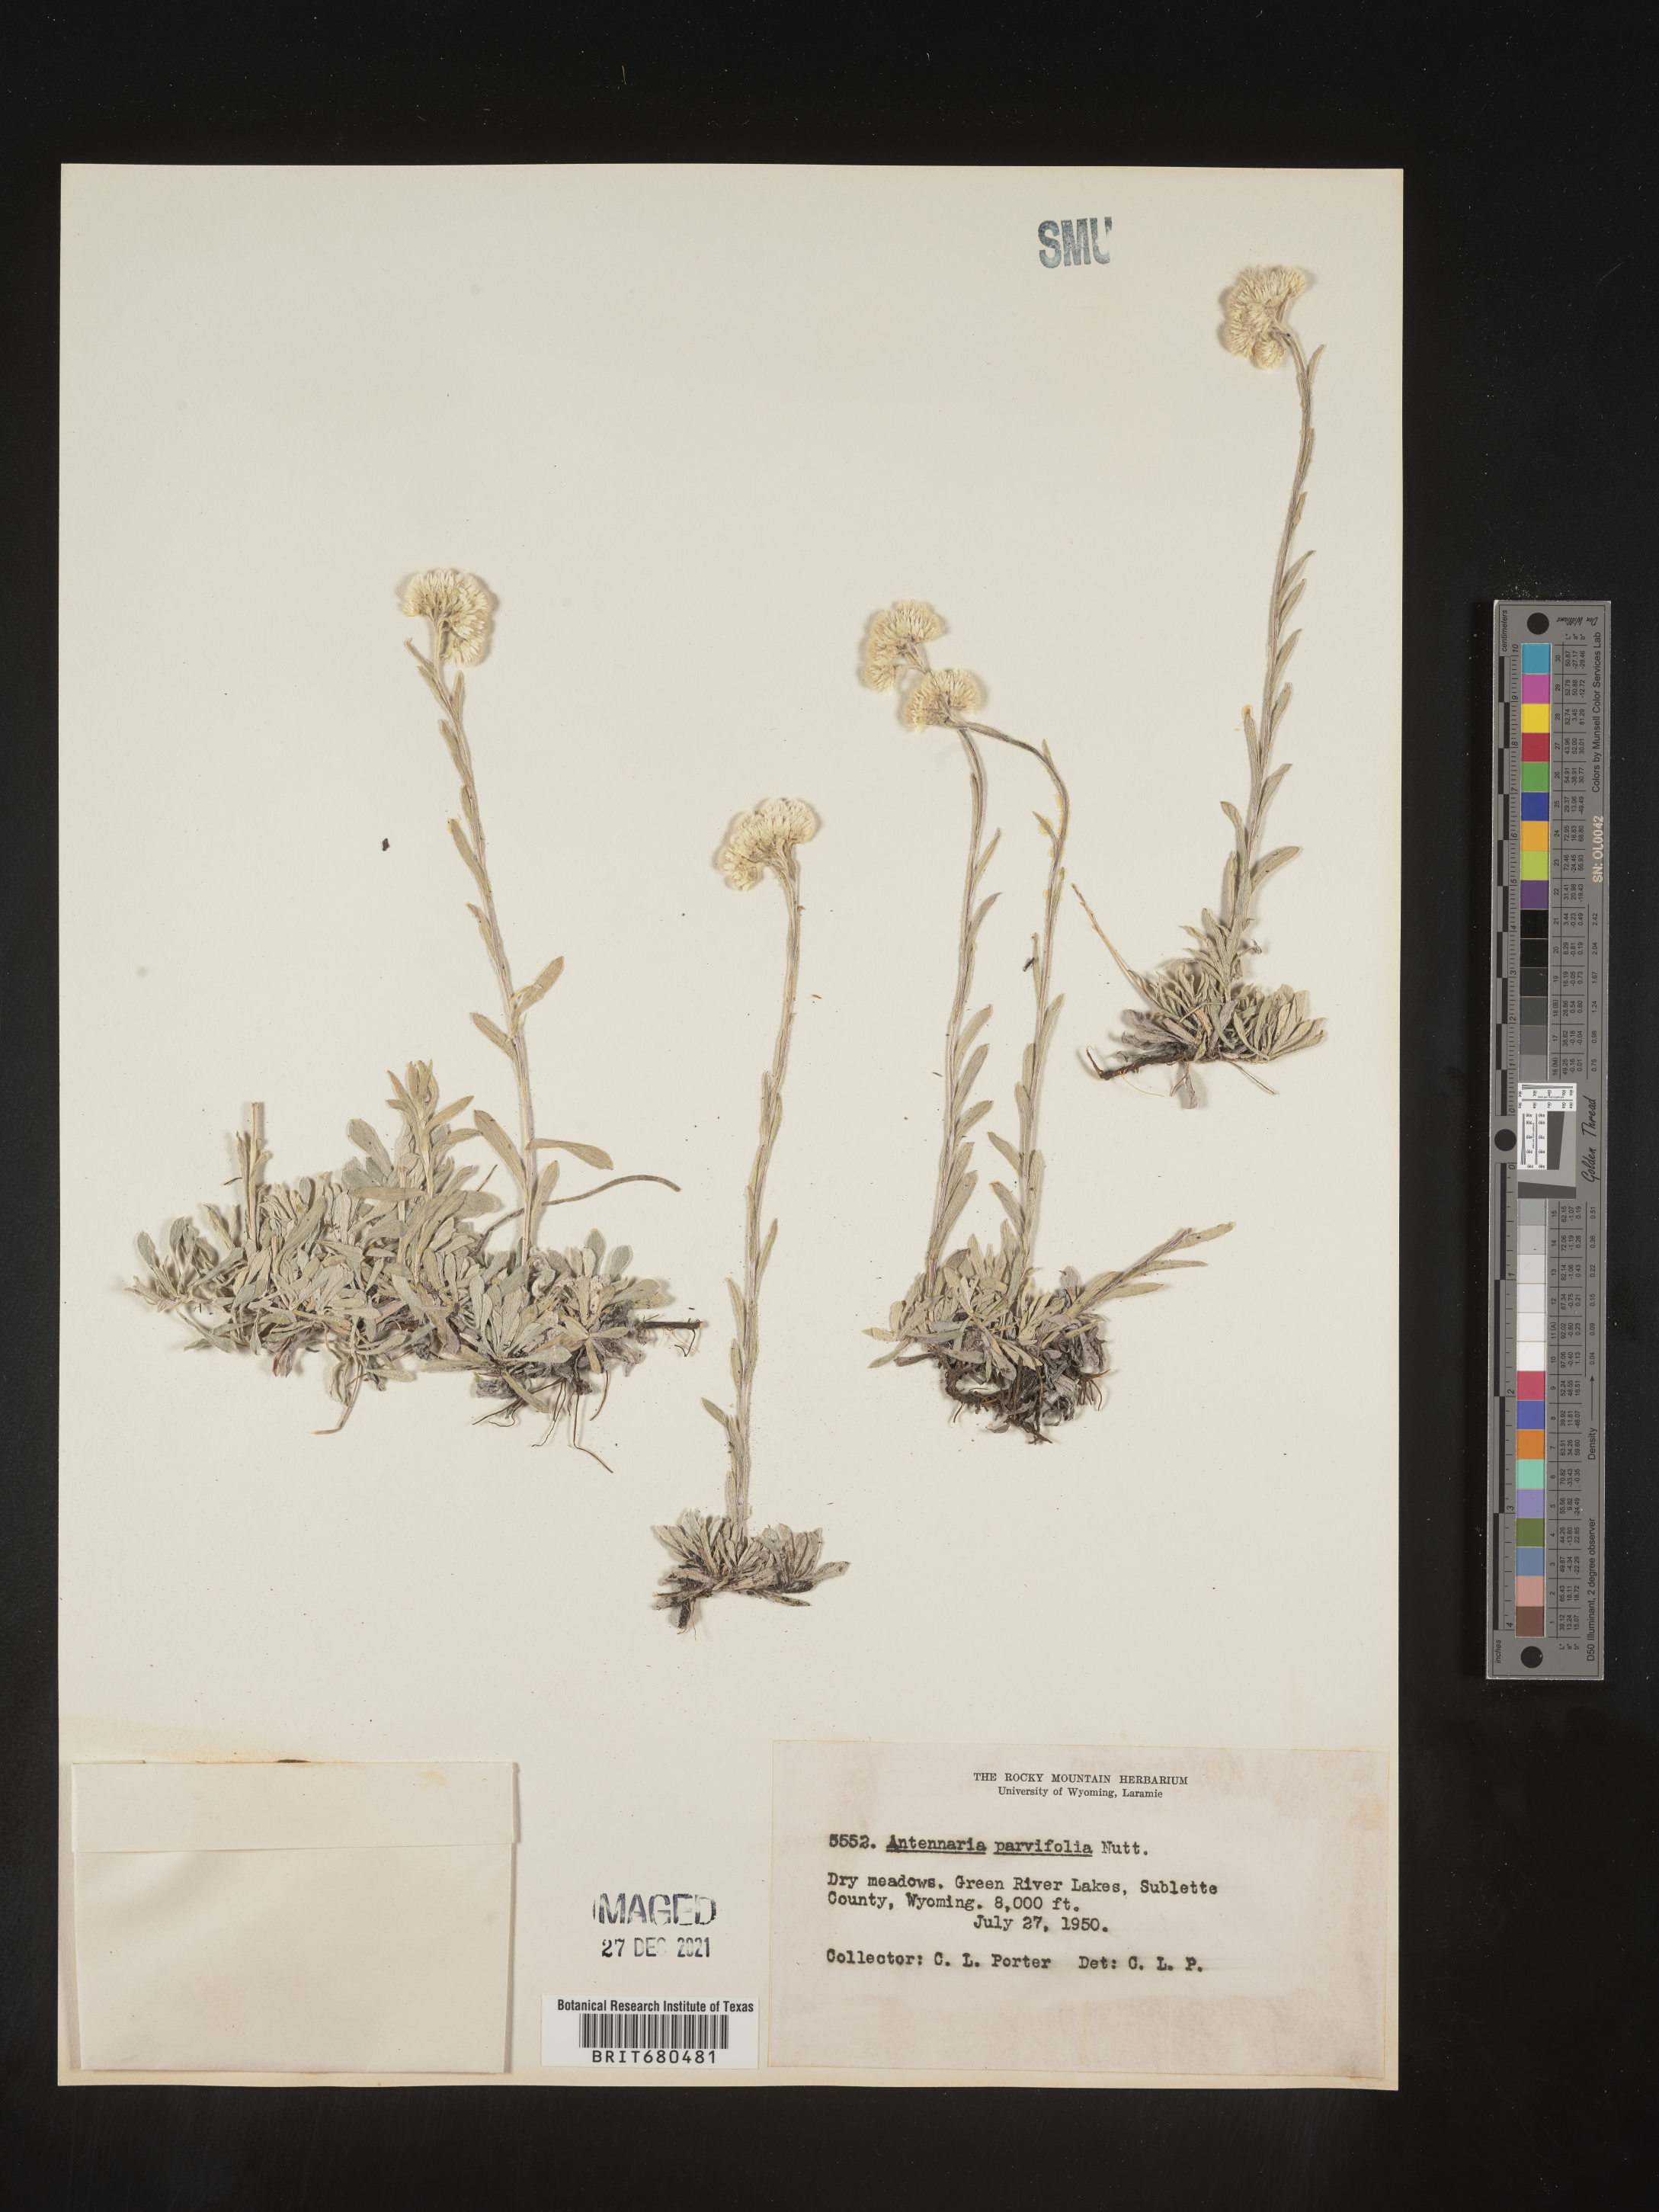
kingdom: Plantae
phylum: Tracheophyta
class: Magnoliopsida
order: Asterales
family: Asteraceae
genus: Antennaria
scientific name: Antennaria rosea
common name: Rosy pussytoes
